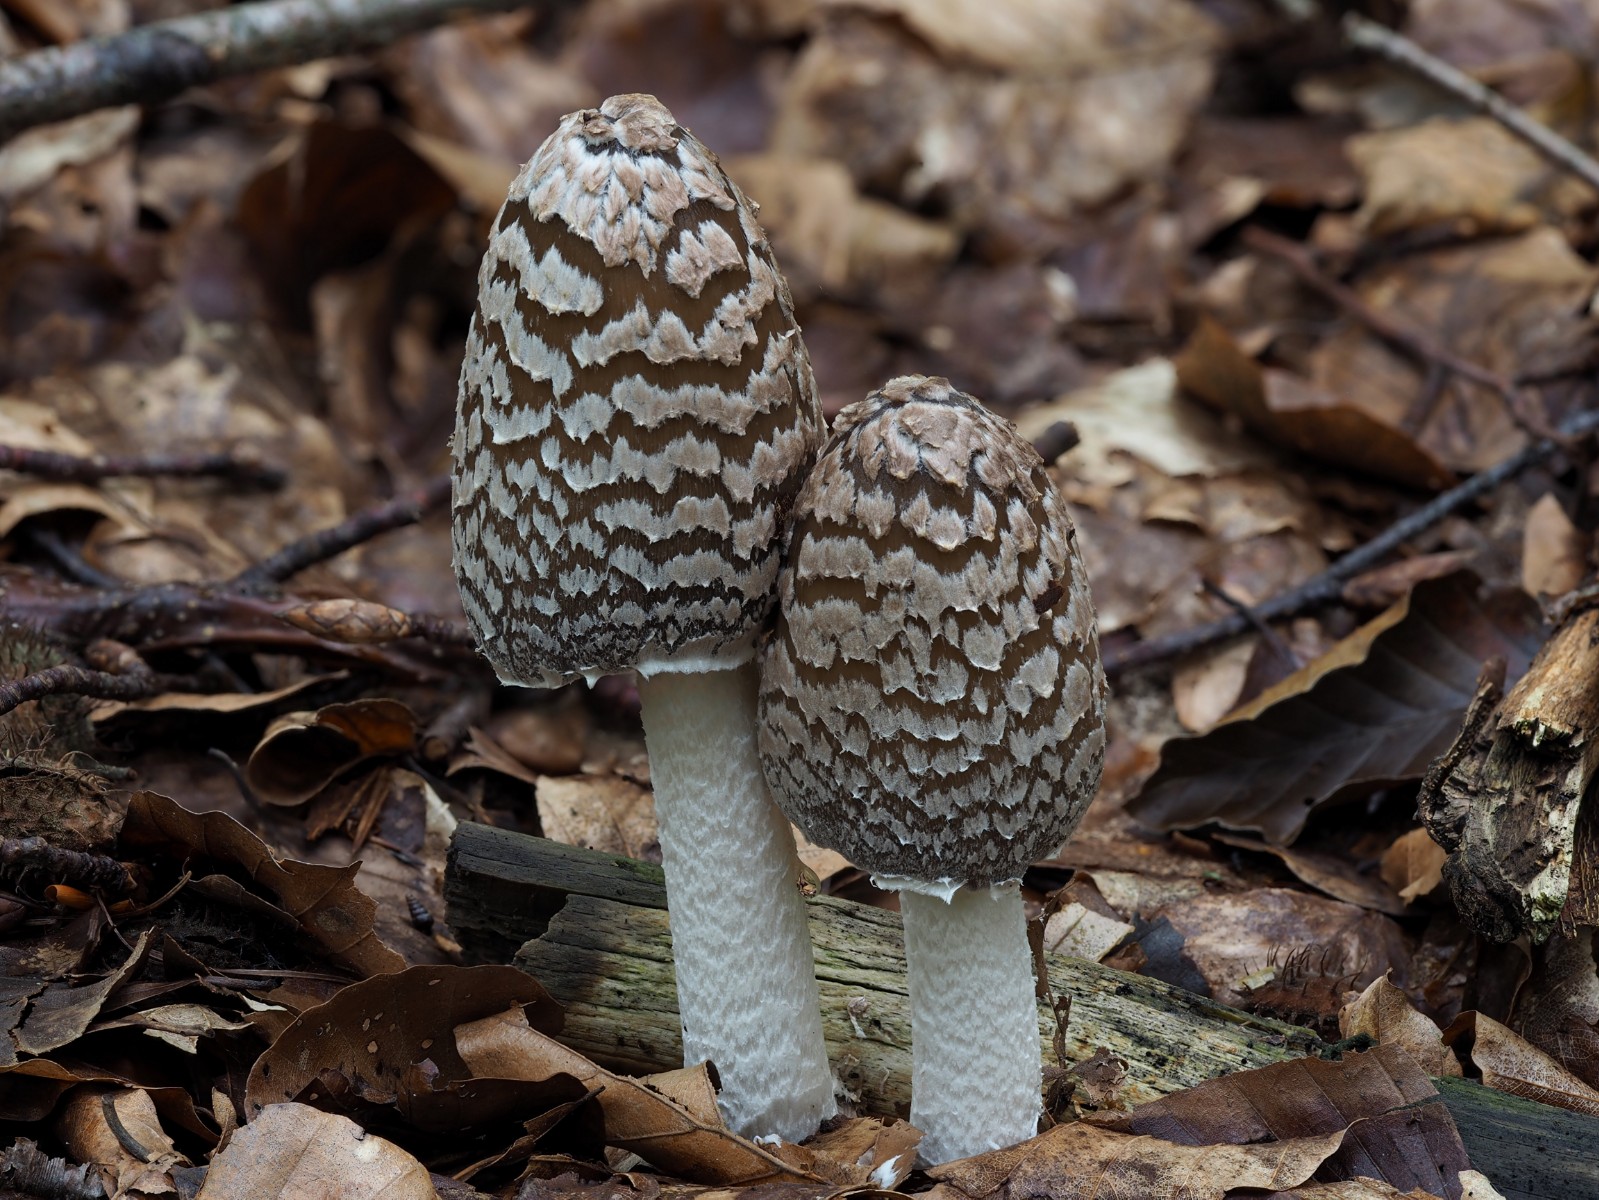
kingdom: Fungi
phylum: Basidiomycota
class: Agaricomycetes
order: Agaricales
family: Psathyrellaceae
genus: Coprinopsis
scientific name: Coprinopsis picacea
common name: skade-blækhat
